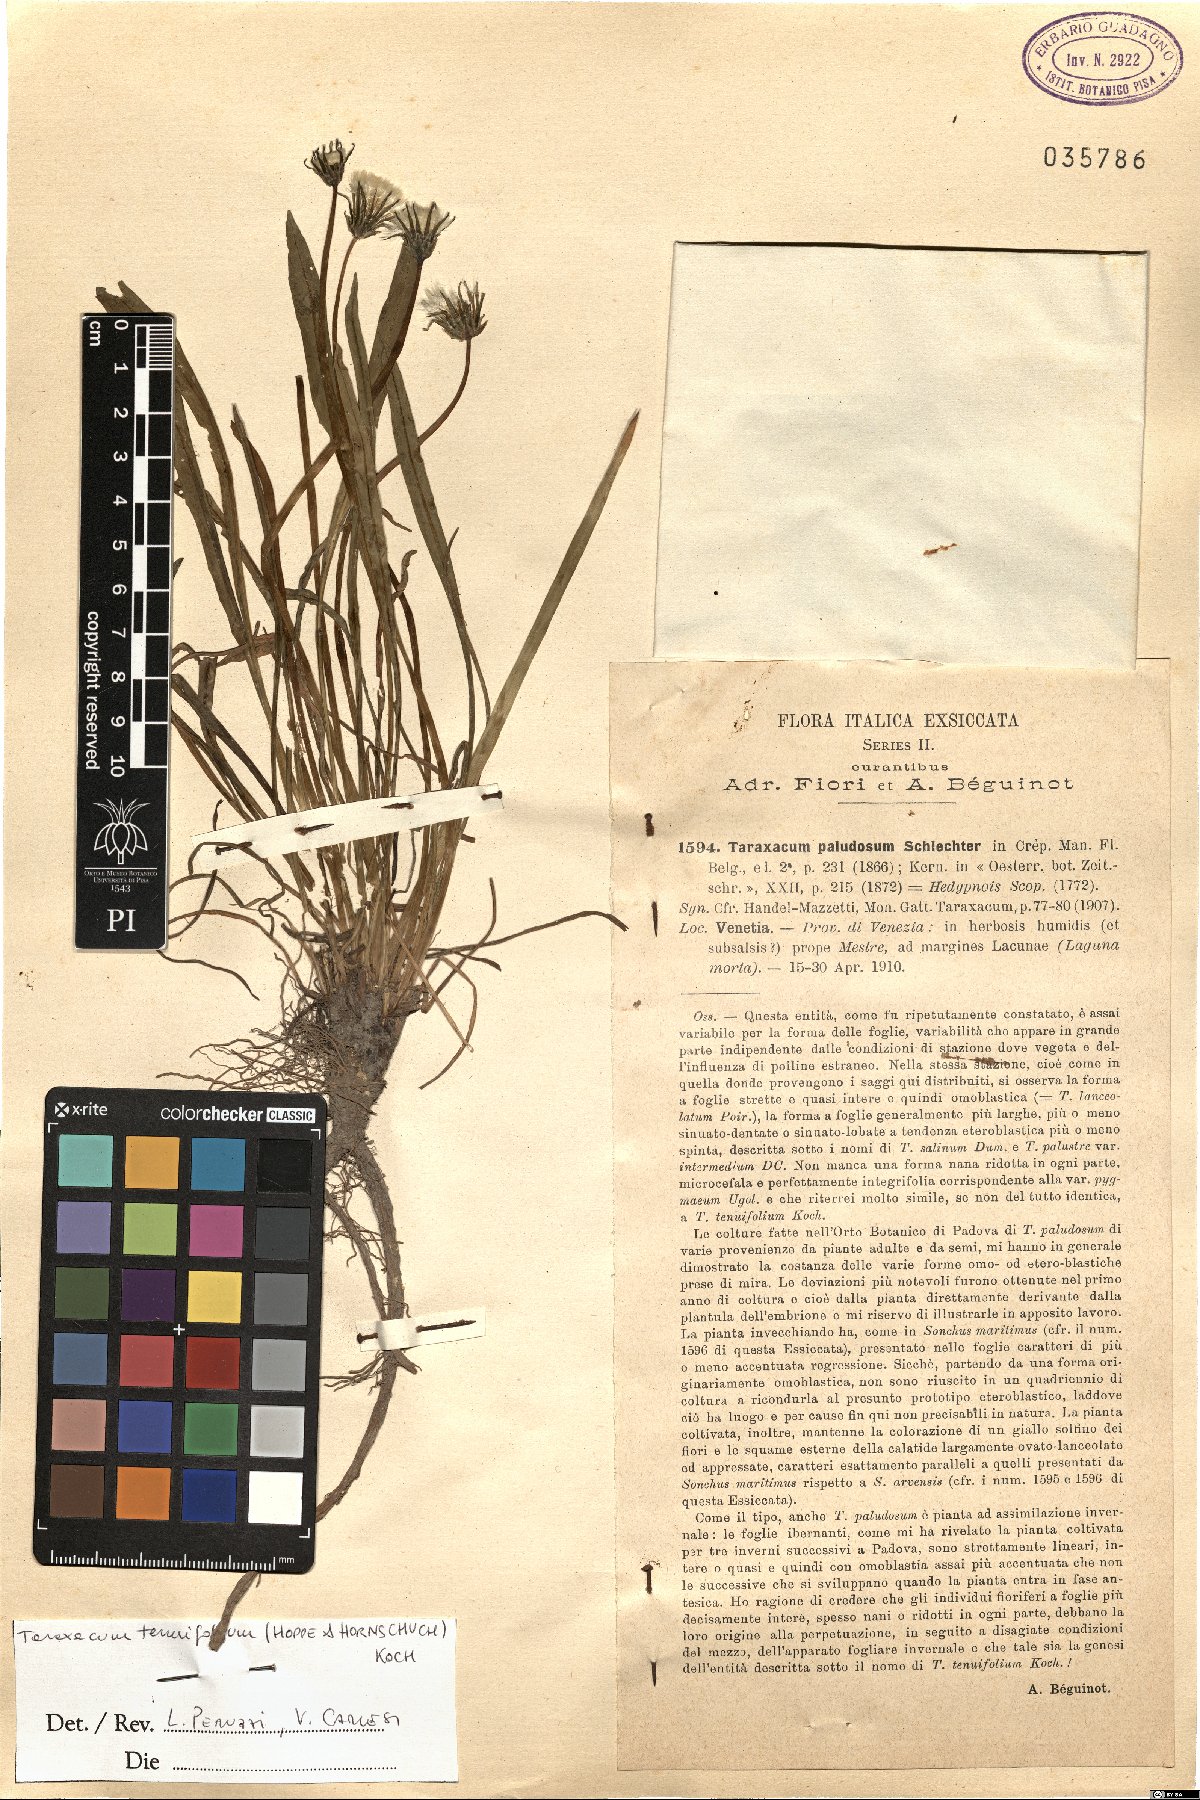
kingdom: Plantae
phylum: Tracheophyta
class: Magnoliopsida
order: Asterales
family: Asteraceae
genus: Taraxacum
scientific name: Taraxacum tenuifolium
